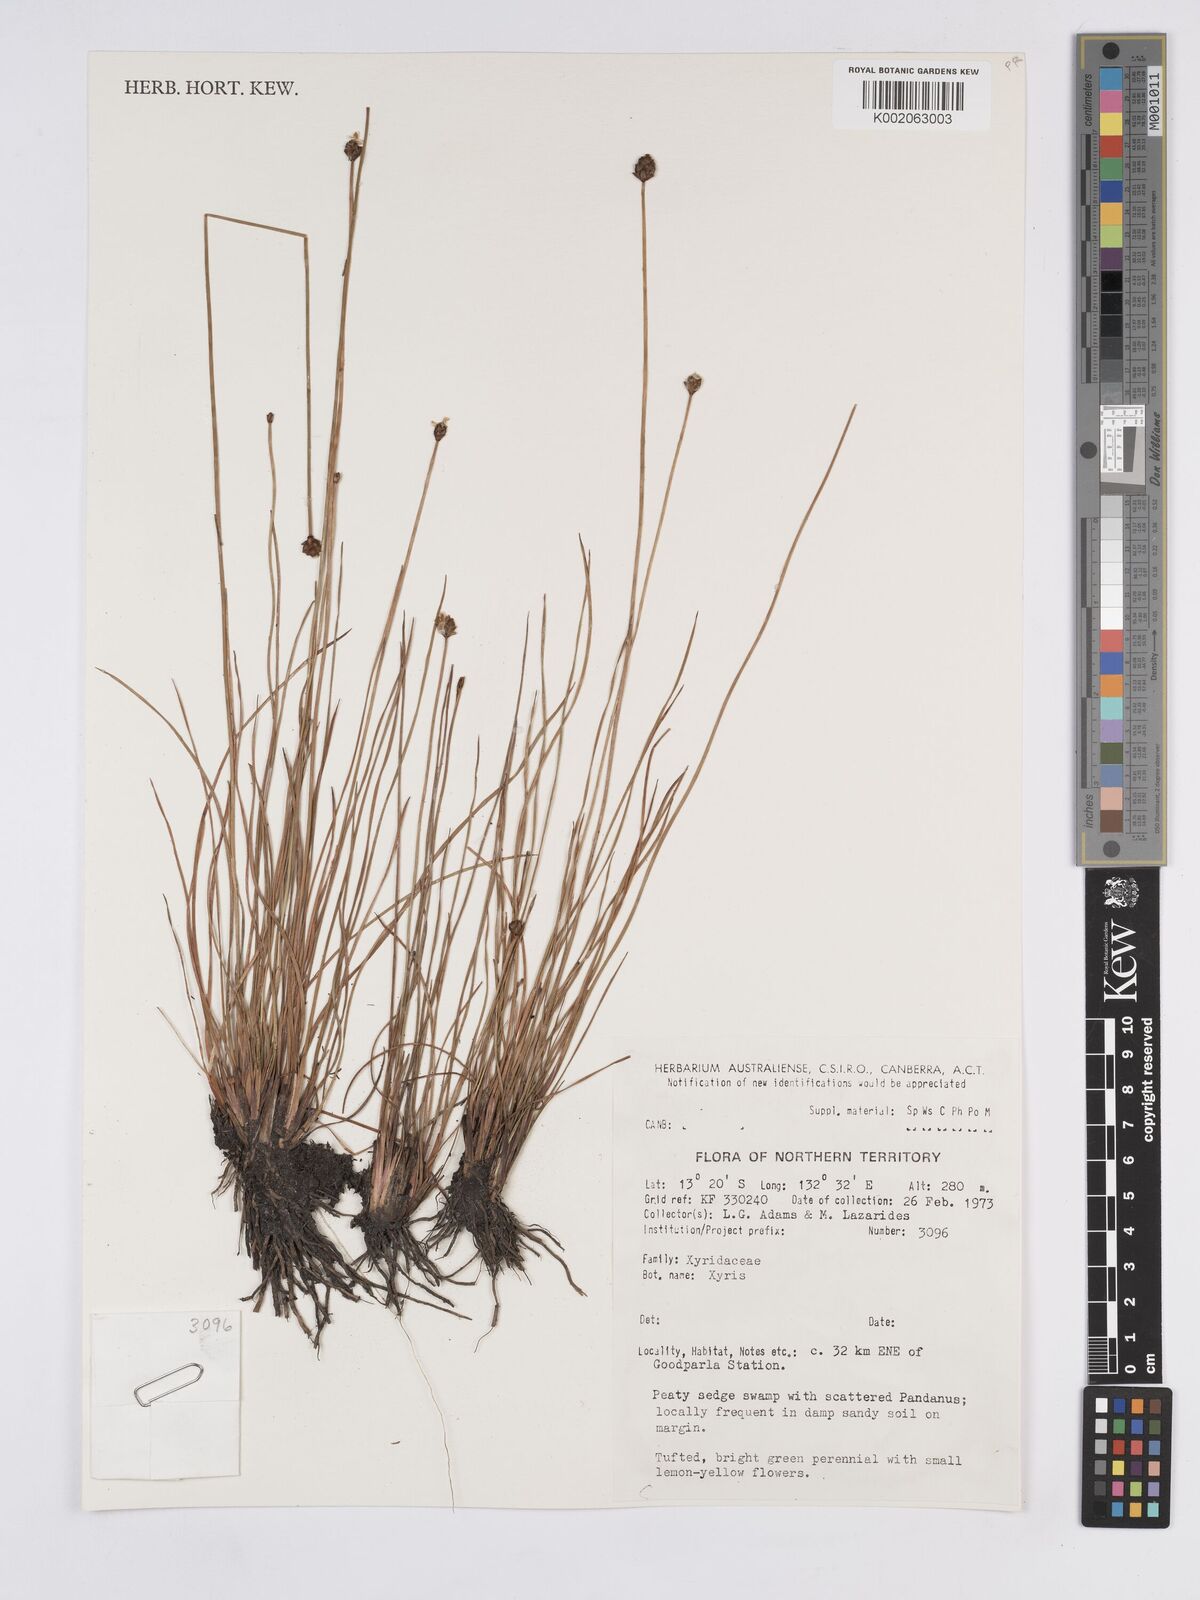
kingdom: Plantae
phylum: Tracheophyta
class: Liliopsida
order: Poales
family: Xyridaceae
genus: Xyris
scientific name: Xyris
